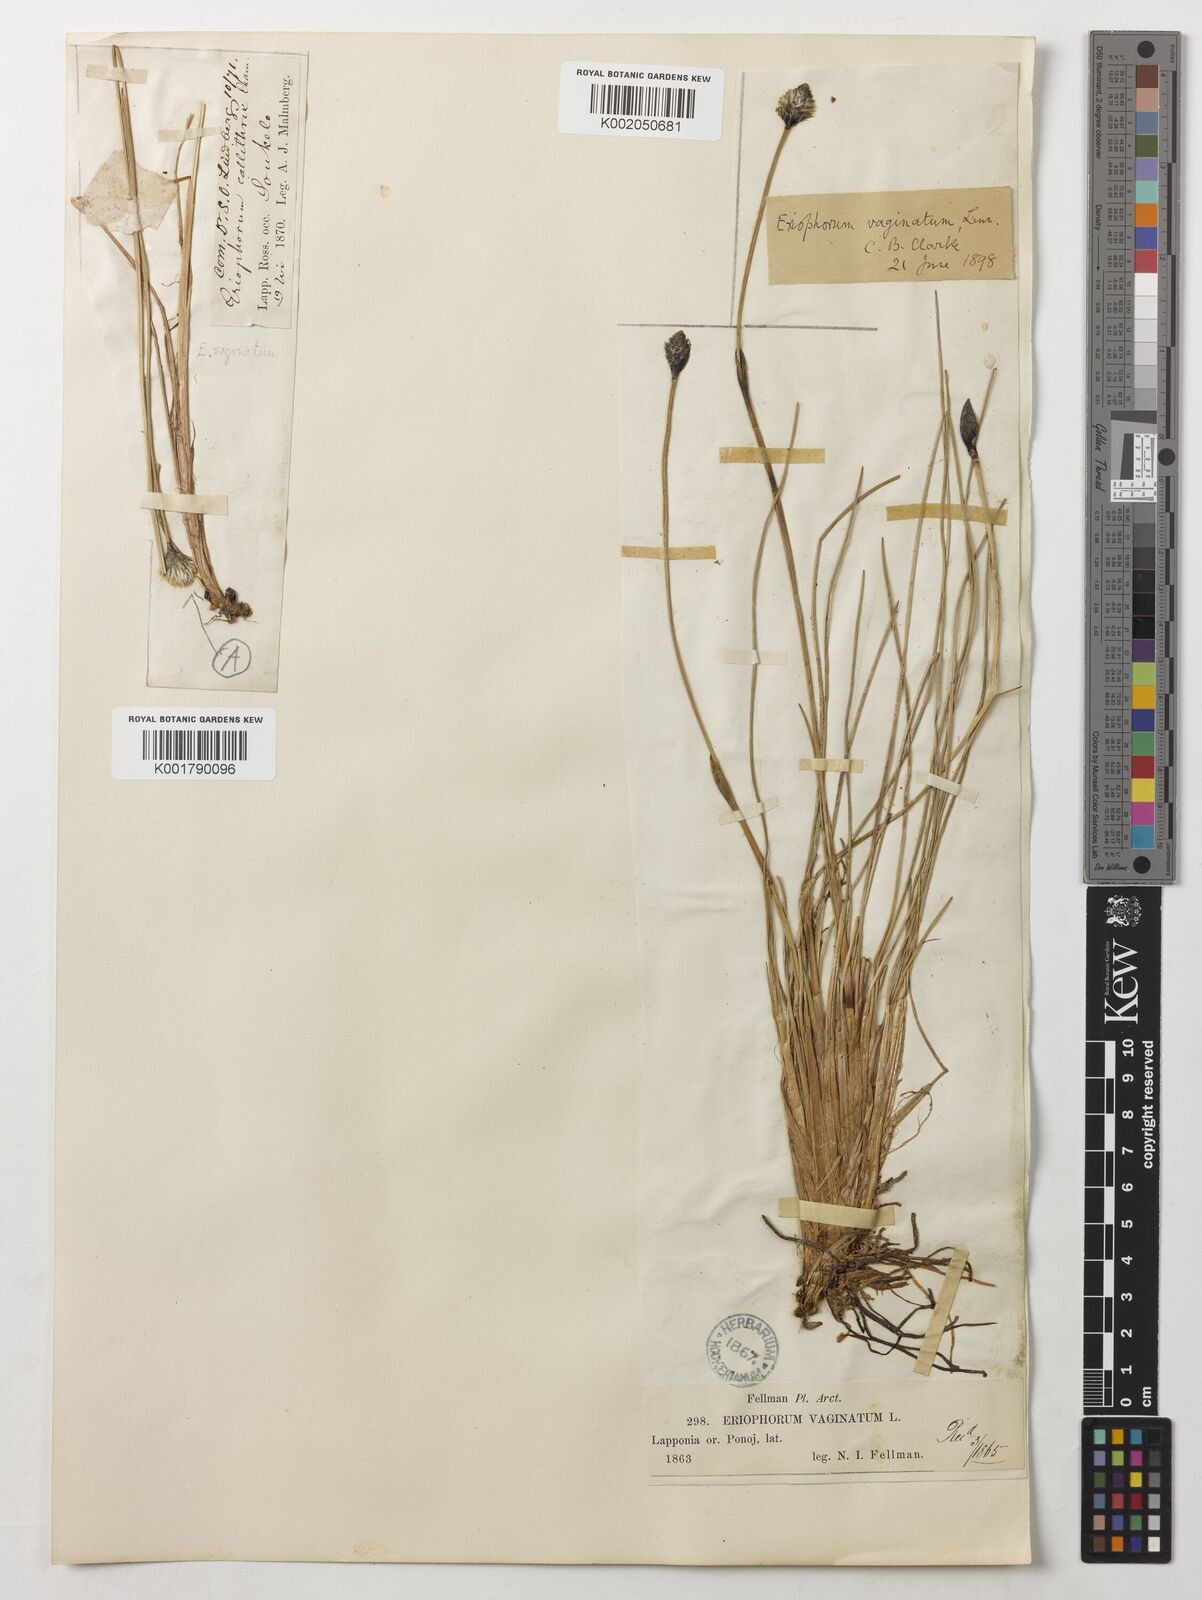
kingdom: Plantae
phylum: Tracheophyta
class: Liliopsida
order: Poales
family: Cyperaceae
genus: Eriophorum
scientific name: Eriophorum vaginatum
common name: Hare's-tail cottongrass
